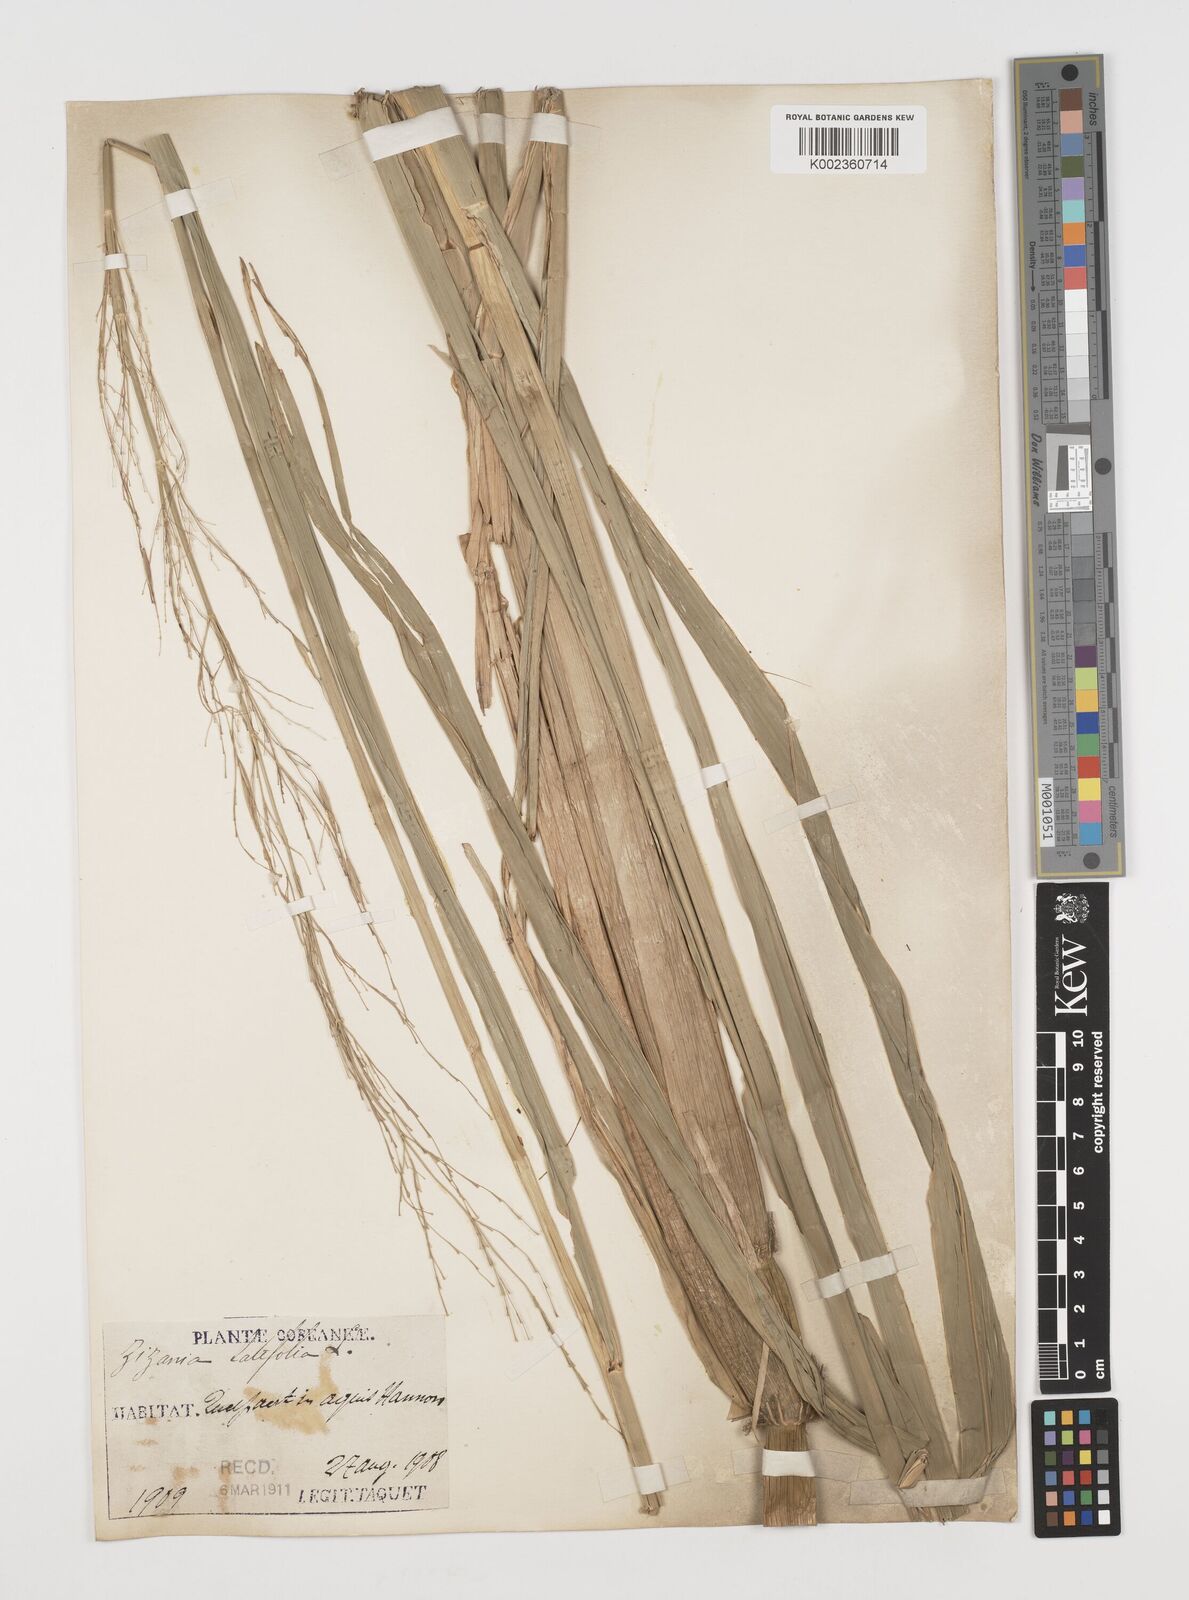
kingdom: Plantae
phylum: Tracheophyta
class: Liliopsida
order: Poales
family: Poaceae
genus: Zizania
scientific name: Zizania latifolia
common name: Manchurian wildrice
